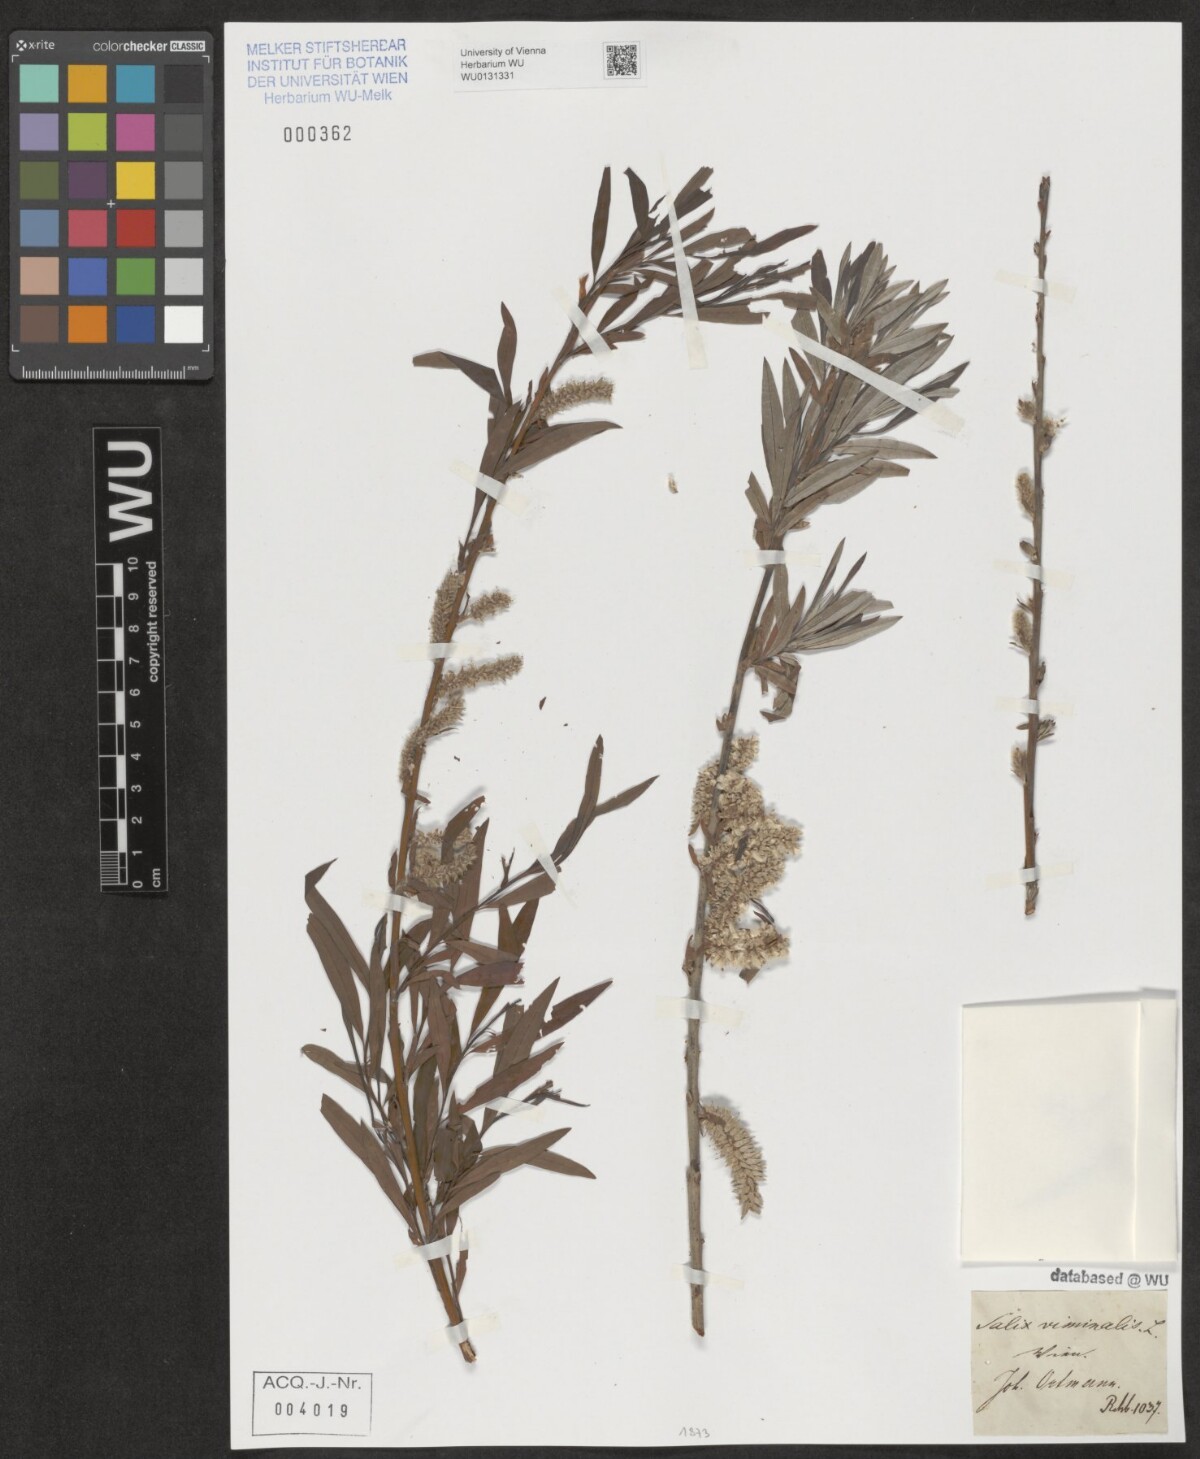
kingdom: Plantae
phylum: Tracheophyta
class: Magnoliopsida
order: Malpighiales
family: Salicaceae
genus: Salix
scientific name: Salix viminalis
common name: Osier
